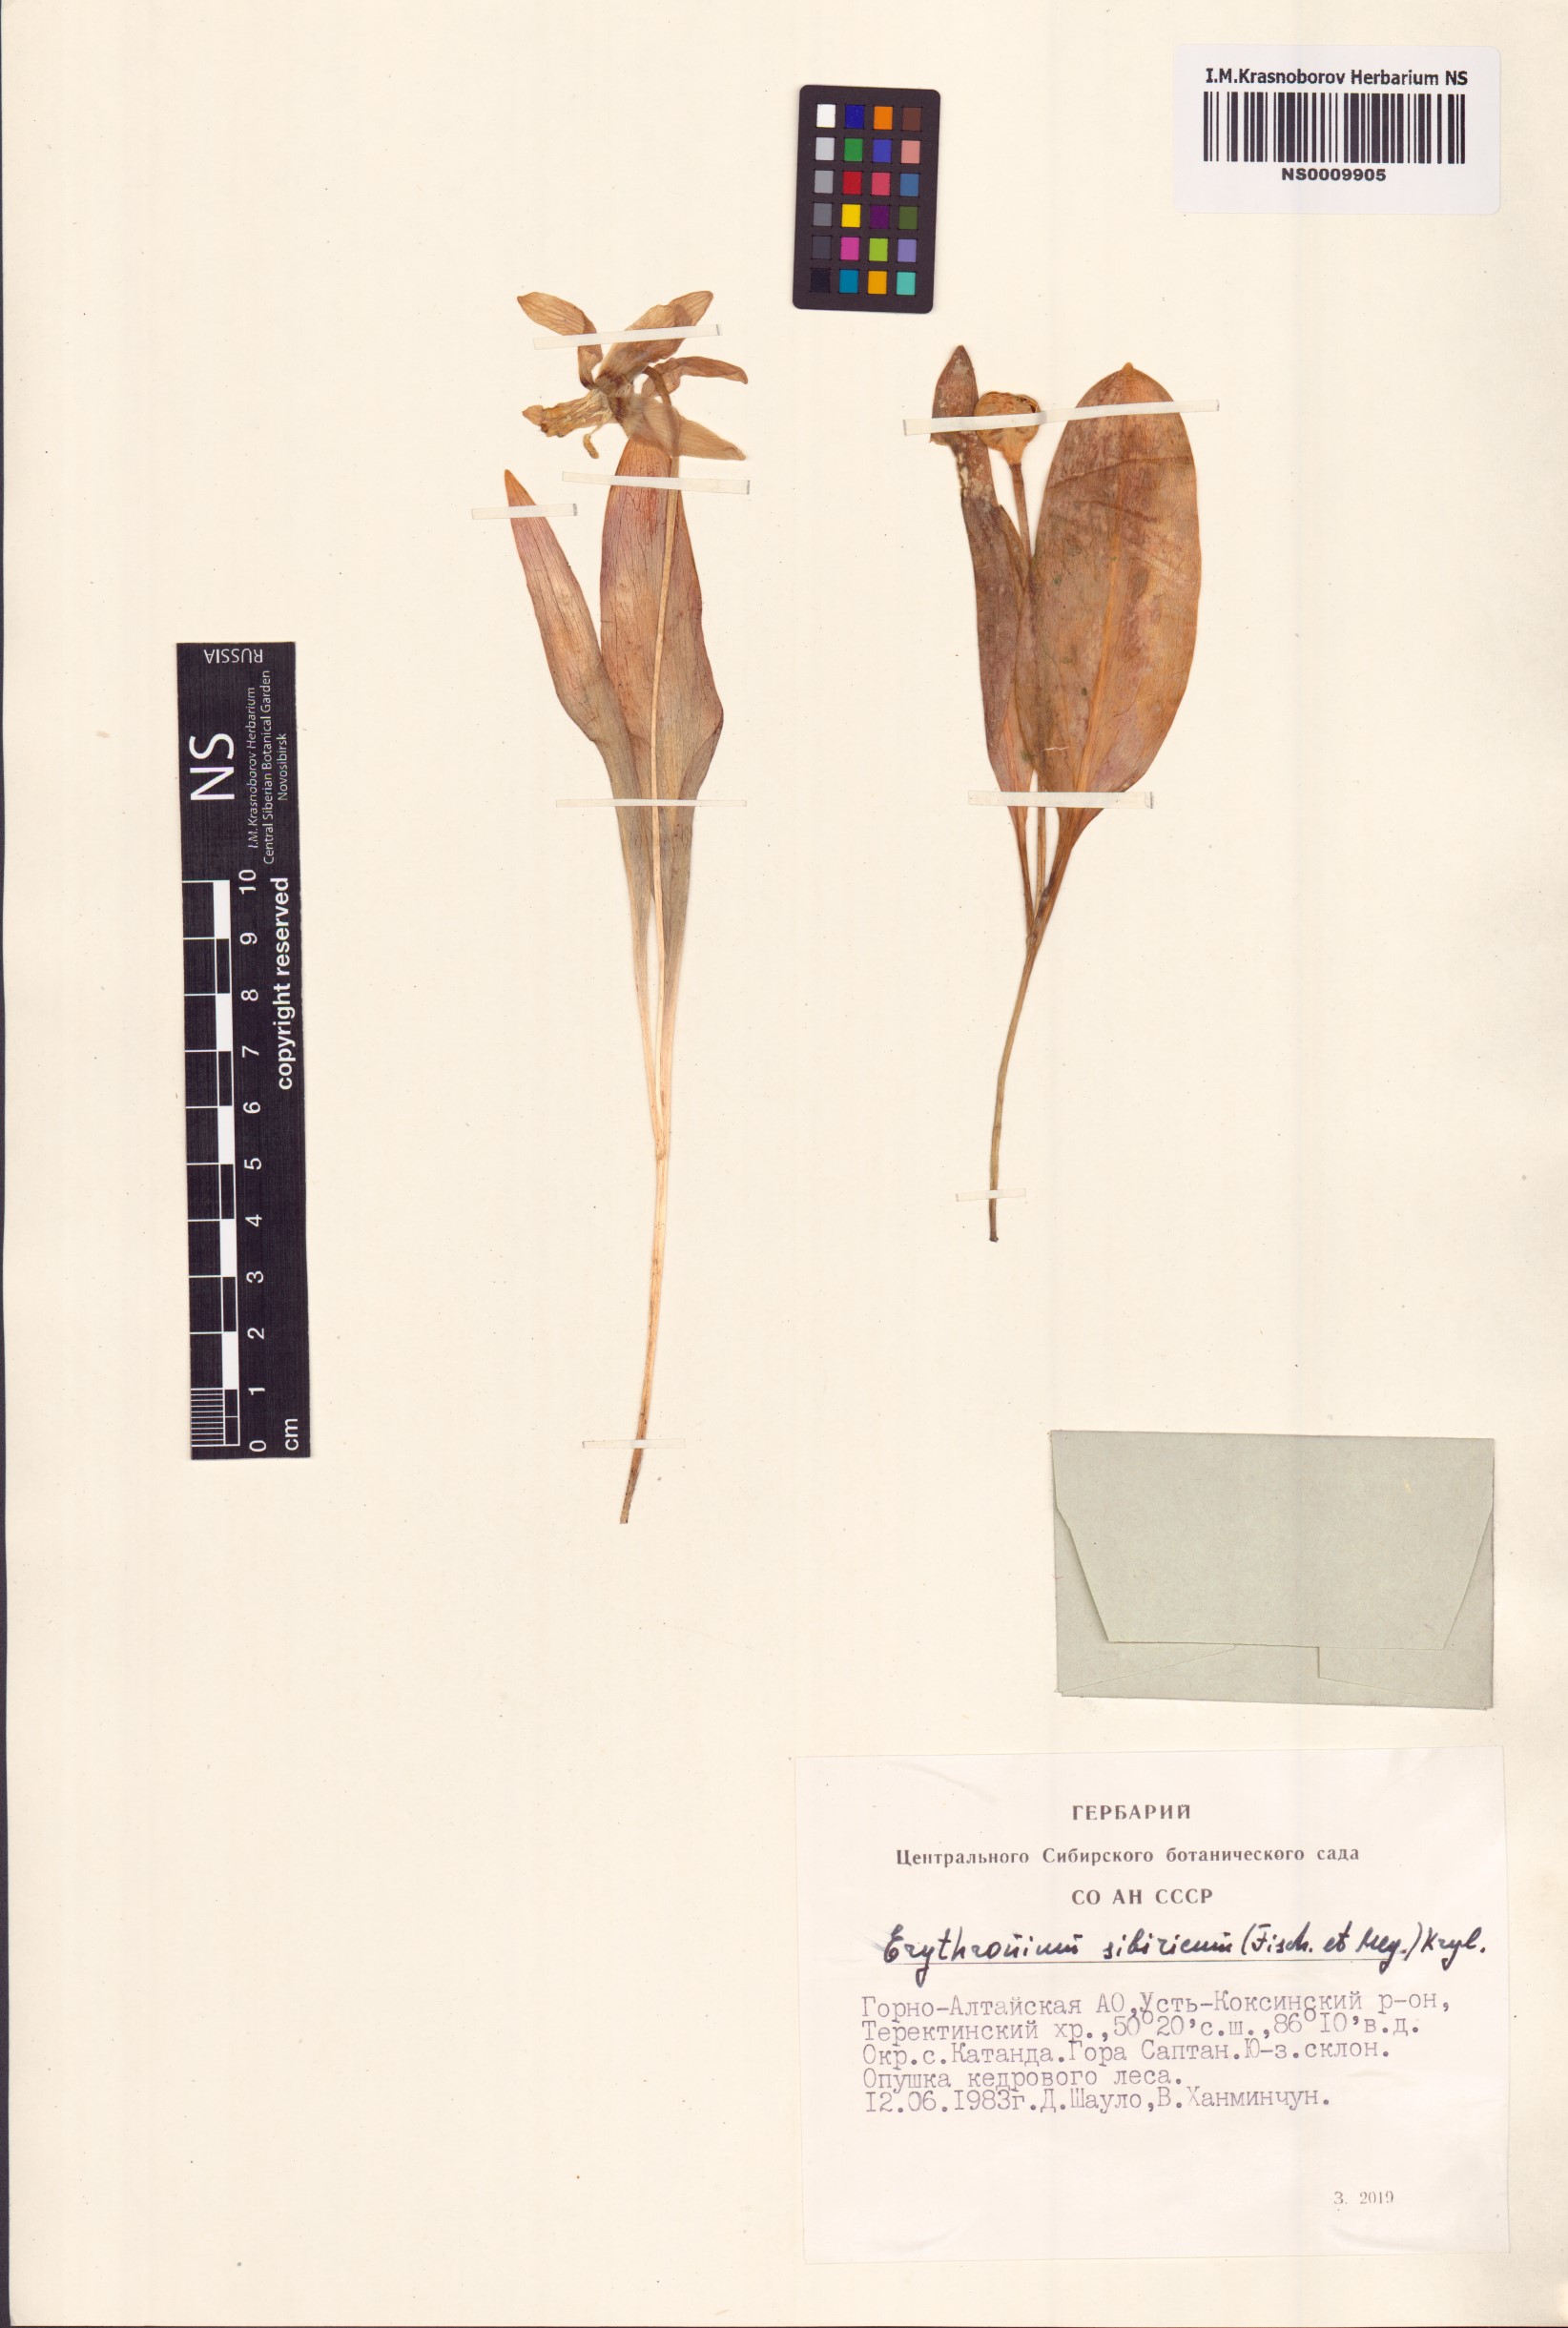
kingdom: Plantae
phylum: Tracheophyta
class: Liliopsida
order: Liliales
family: Liliaceae
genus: Erythronium
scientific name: Erythronium sibiricum
